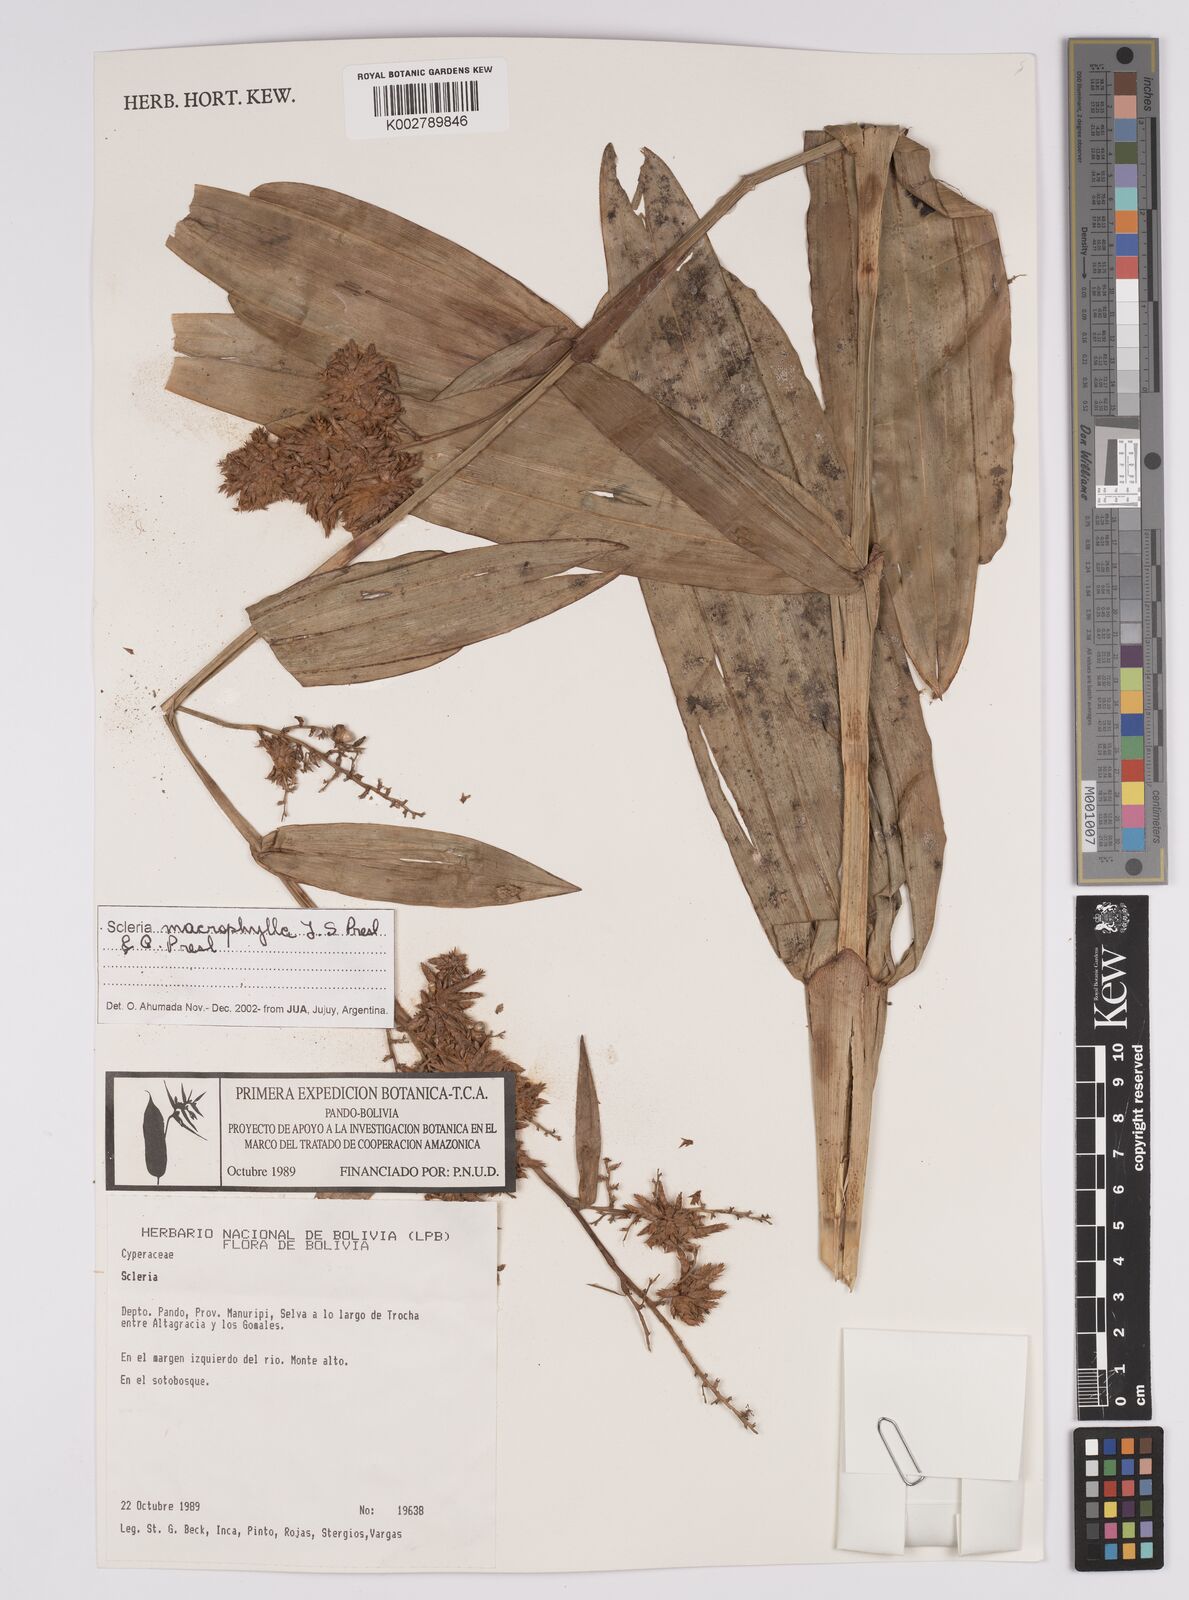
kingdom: Plantae
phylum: Tracheophyta
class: Liliopsida
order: Poales
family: Cyperaceae
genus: Scleria
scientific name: Scleria ciliaris
